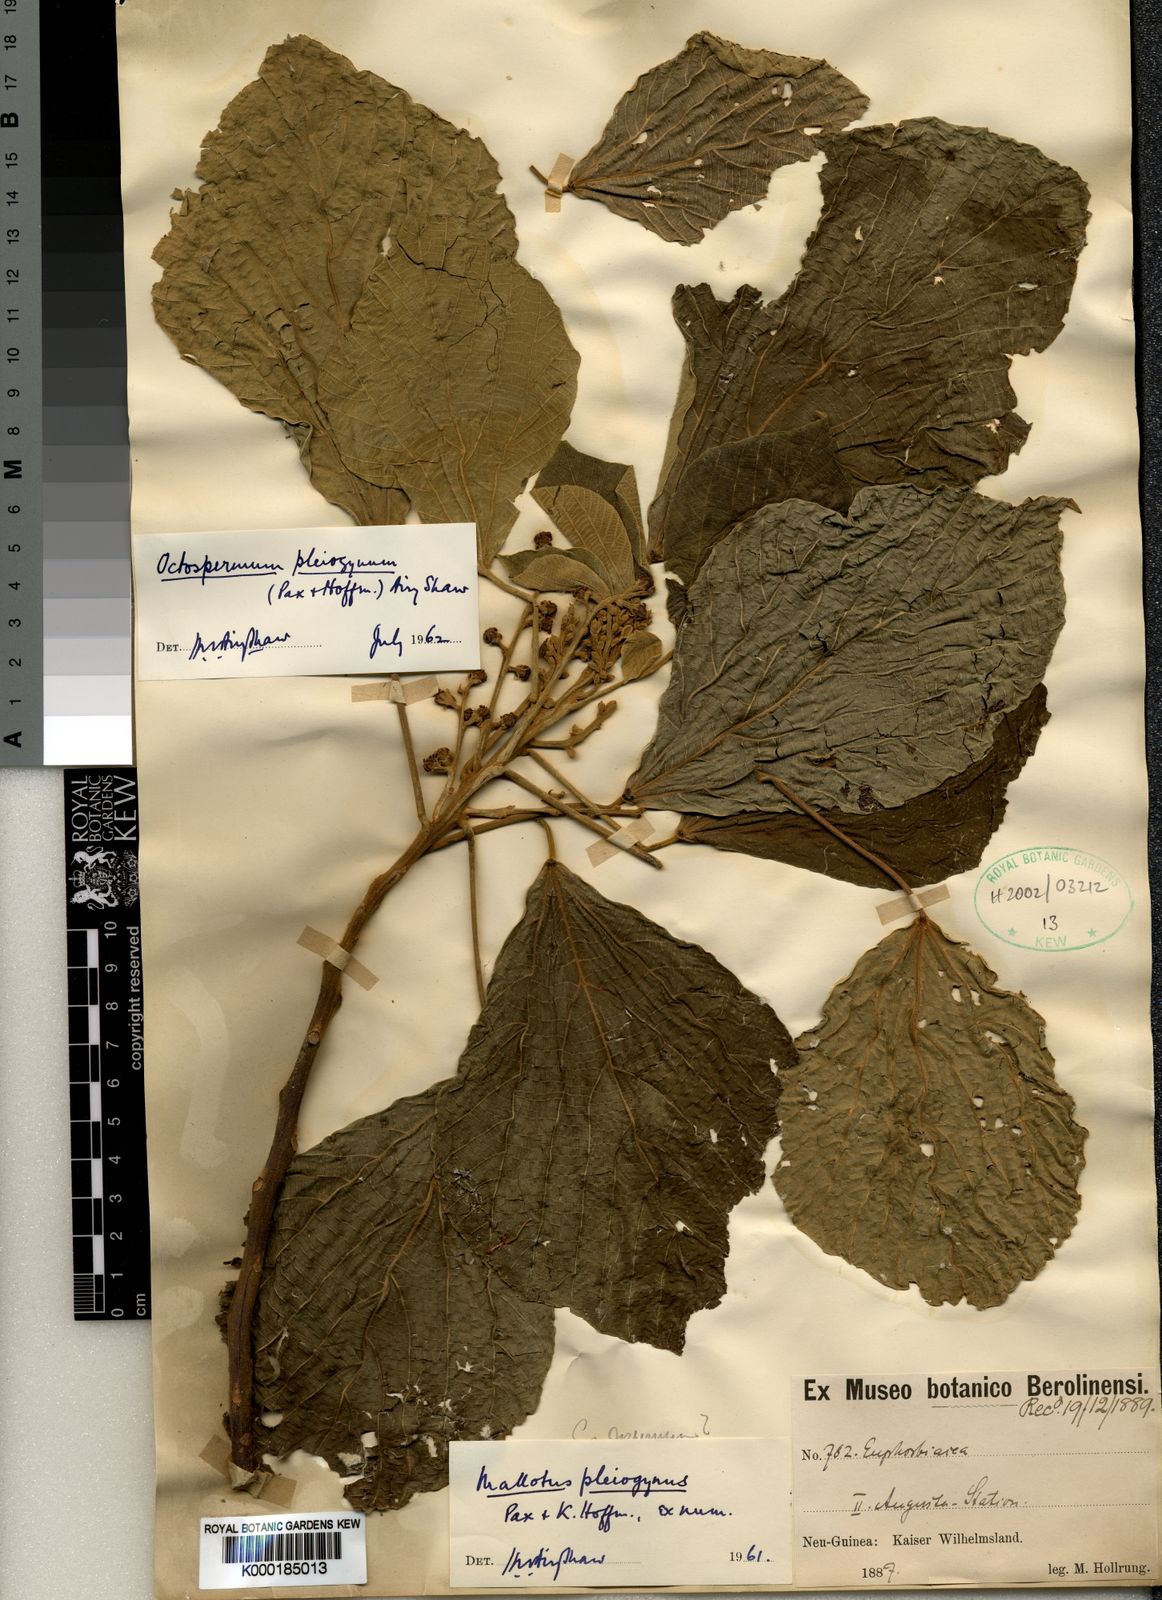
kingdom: Plantae
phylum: Tracheophyta
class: Magnoliopsida
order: Malpighiales
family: Euphorbiaceae
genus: Mallotus
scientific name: Mallotus pleiogynus
